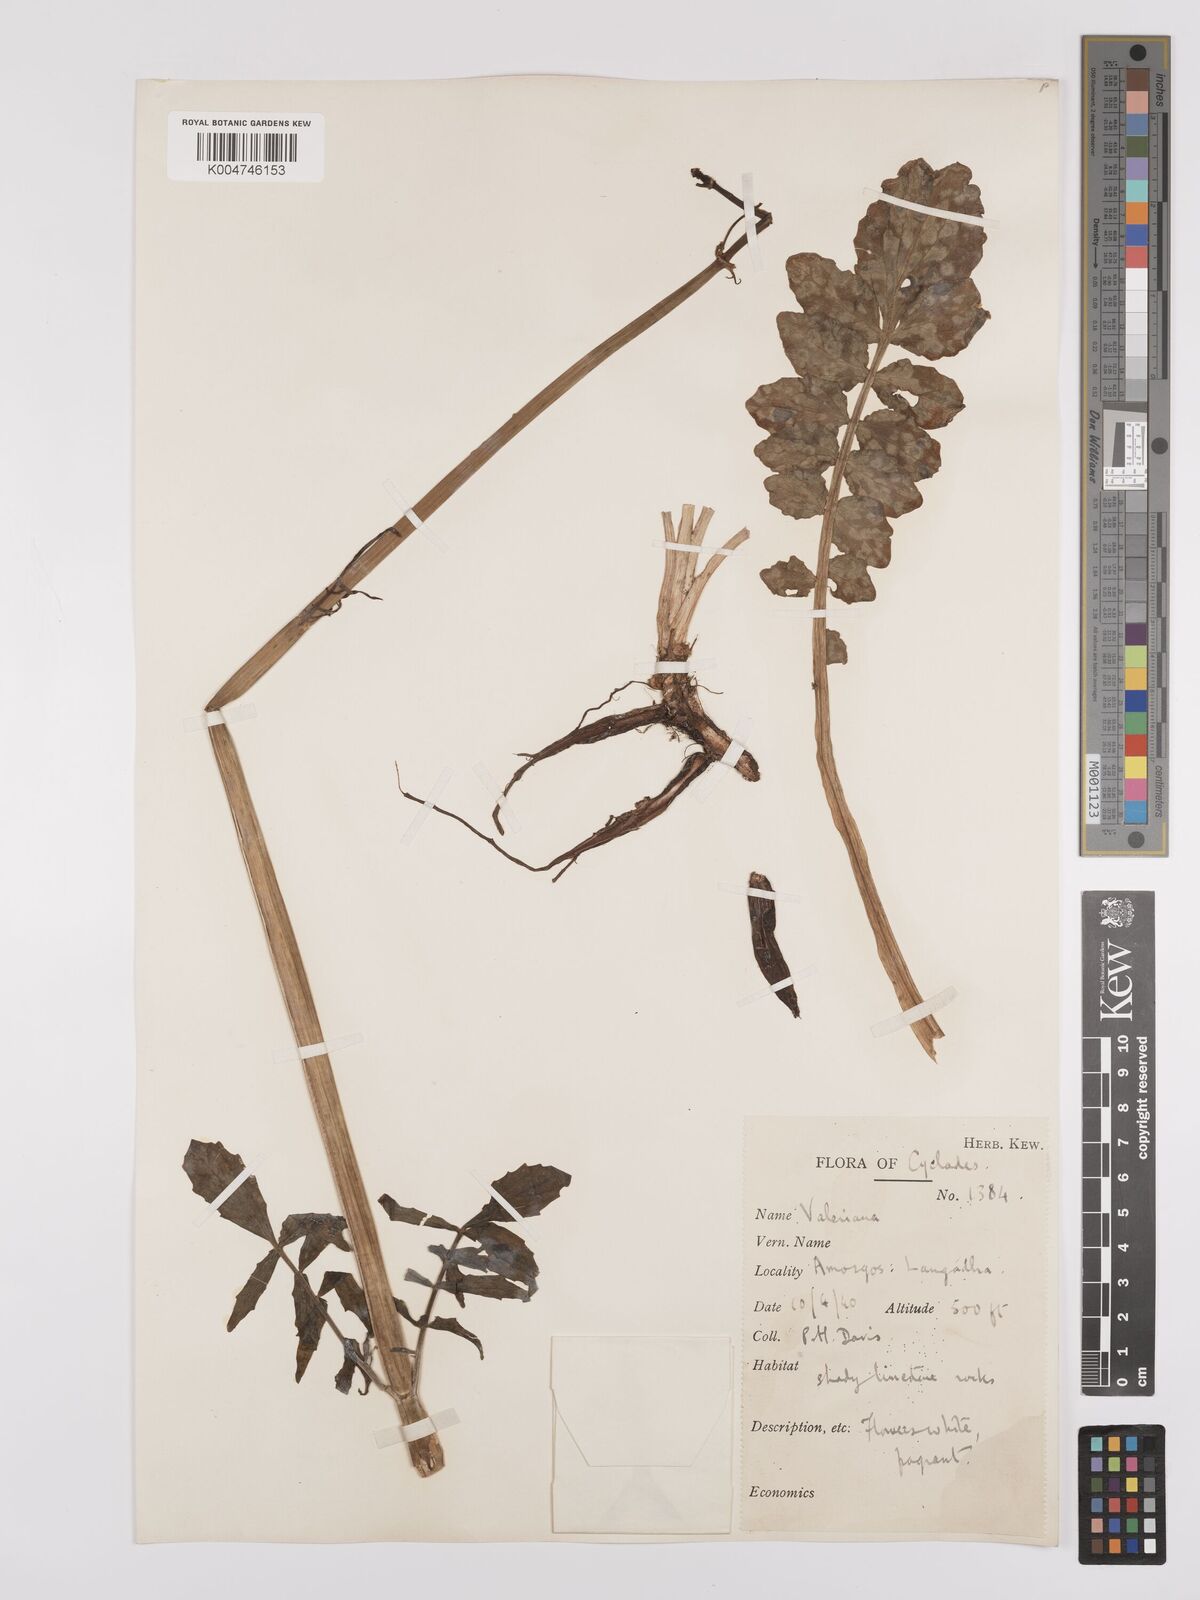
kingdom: Plantae
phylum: Tracheophyta
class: Magnoliopsida
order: Dipsacales
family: Caprifoliaceae
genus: Valeriana
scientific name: Valeriana dioscoridis
